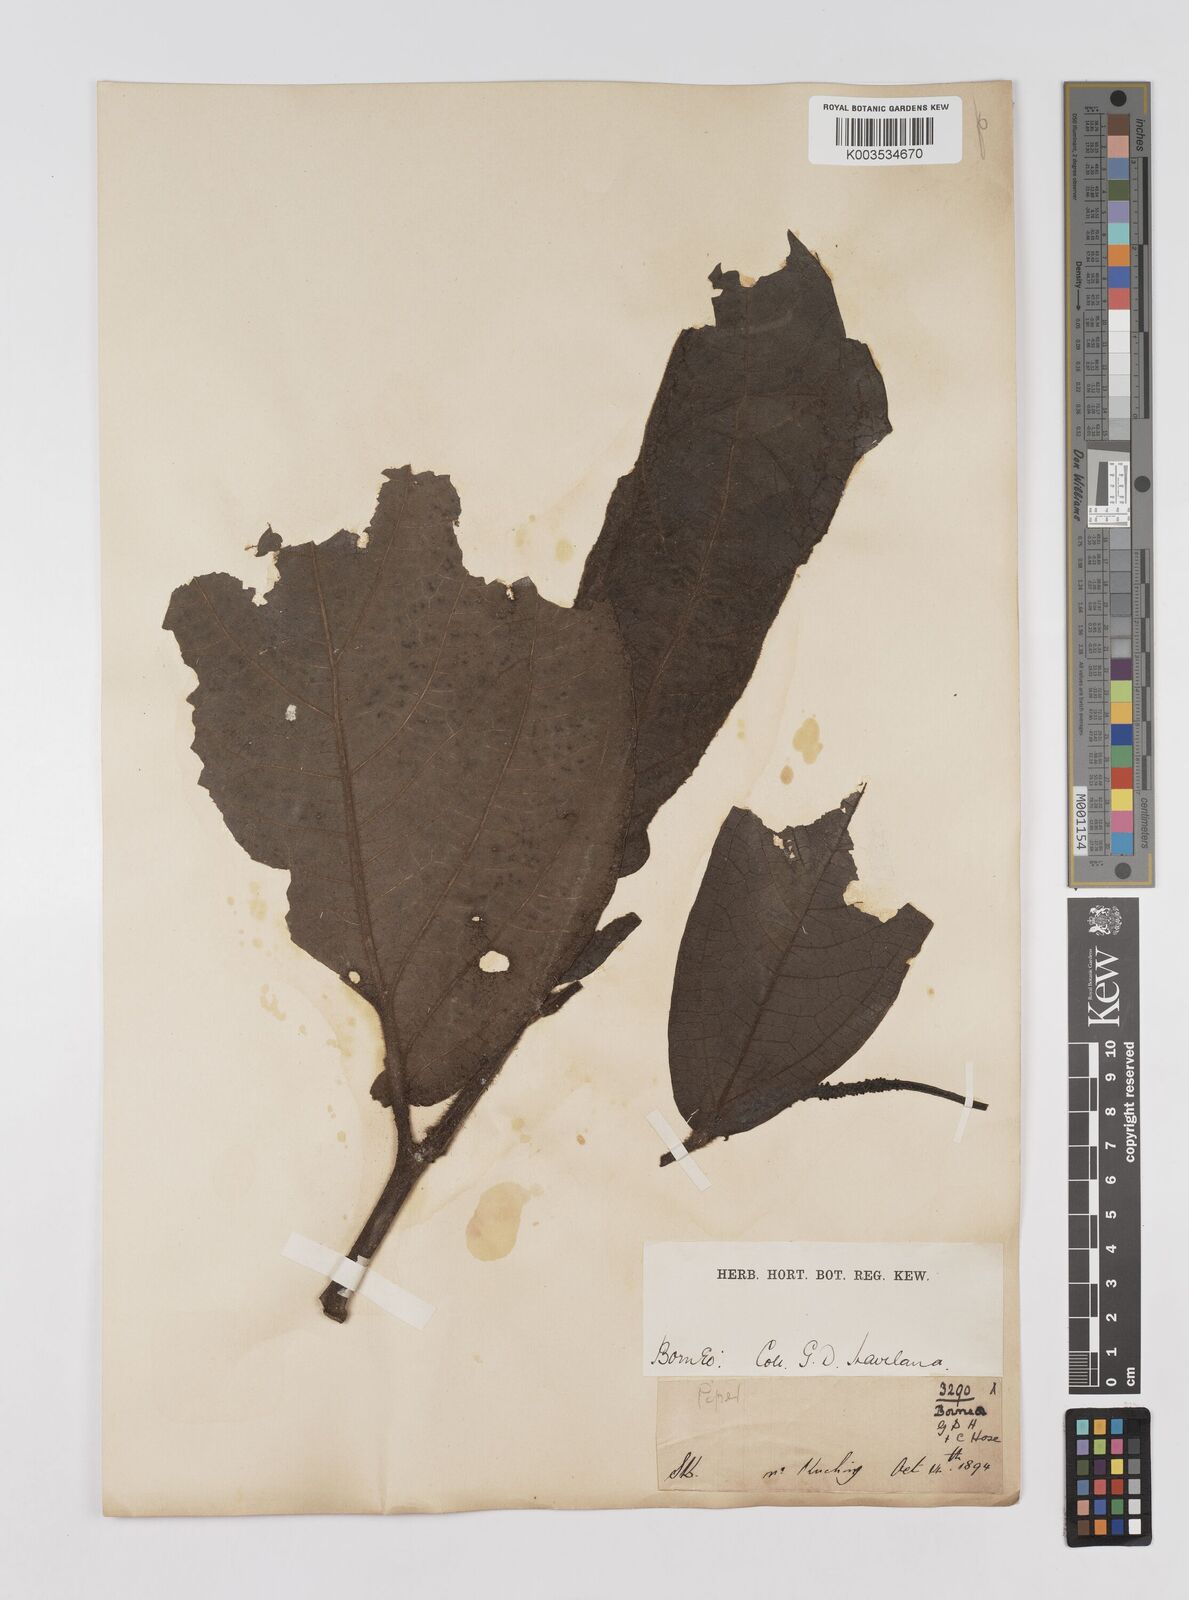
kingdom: Plantae
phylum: Tracheophyta
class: Magnoliopsida
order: Piperales
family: Piperaceae
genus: Piper
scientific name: Piper muricatum
